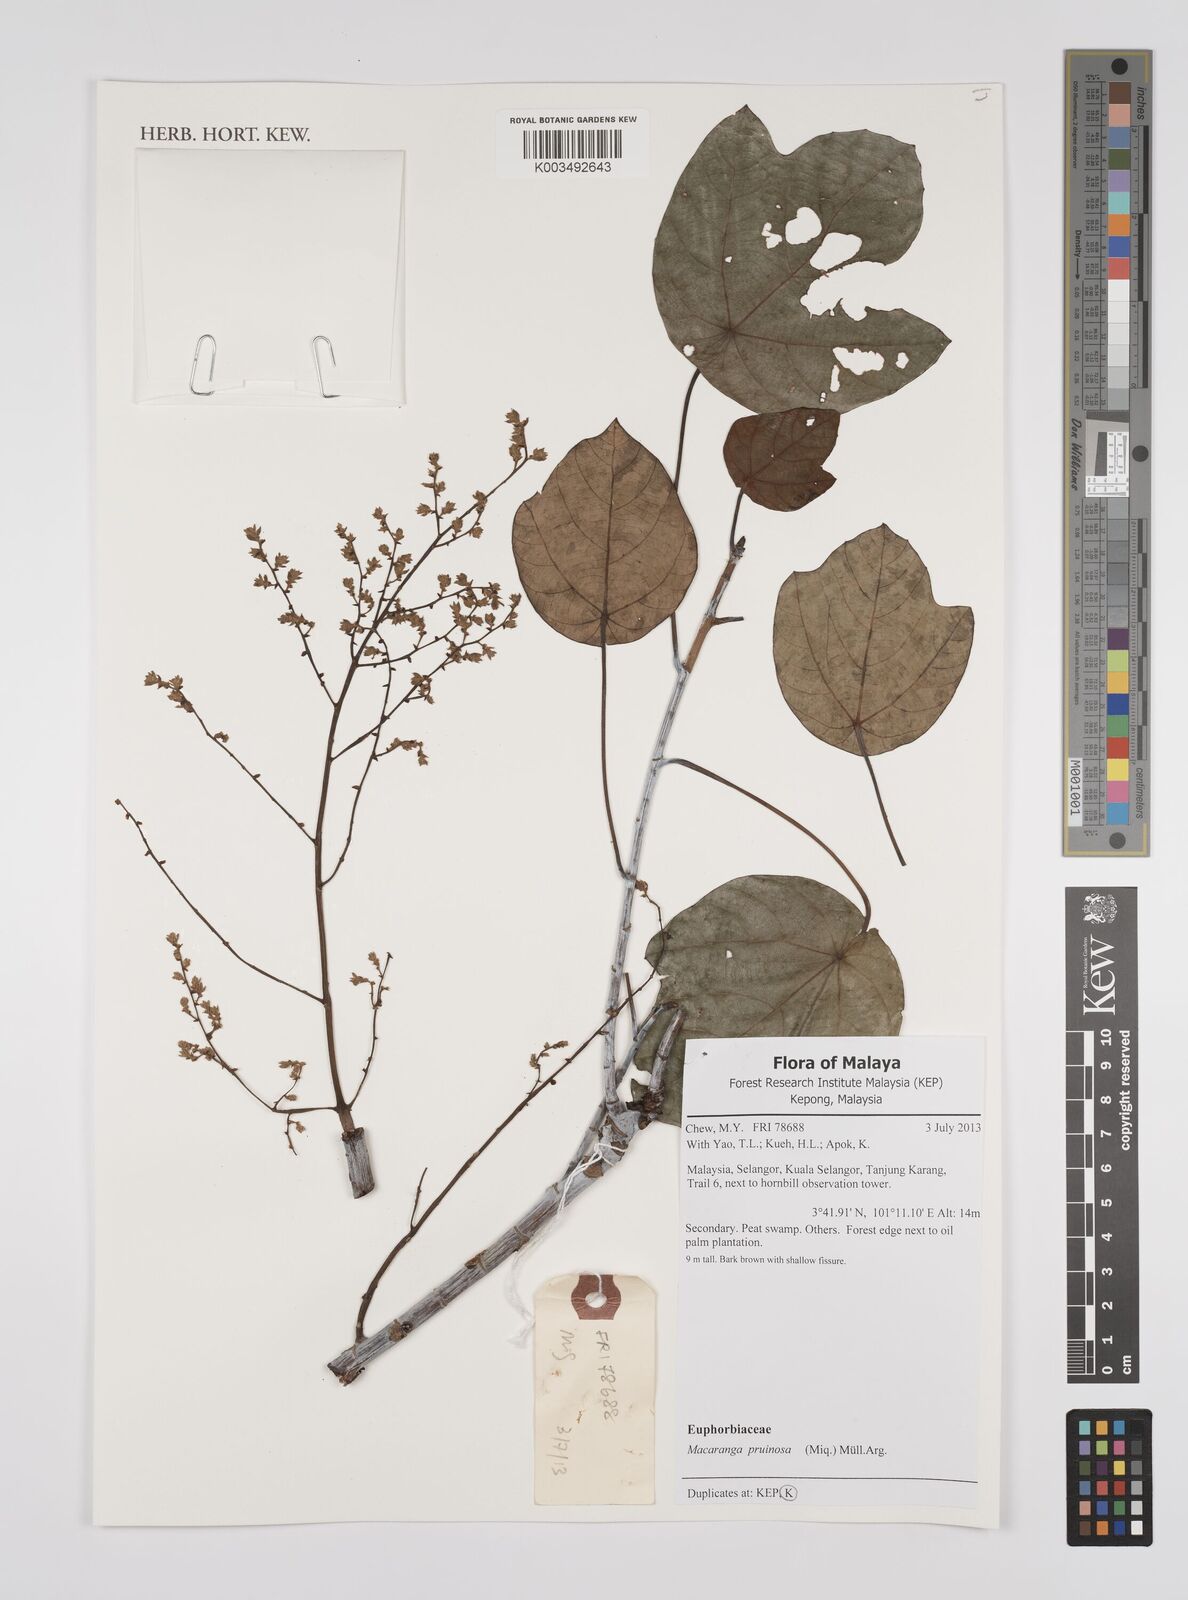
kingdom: Plantae
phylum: Tracheophyta
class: Magnoliopsida
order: Malpighiales
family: Euphorbiaceae
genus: Macaranga
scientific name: Macaranga pruinosa
